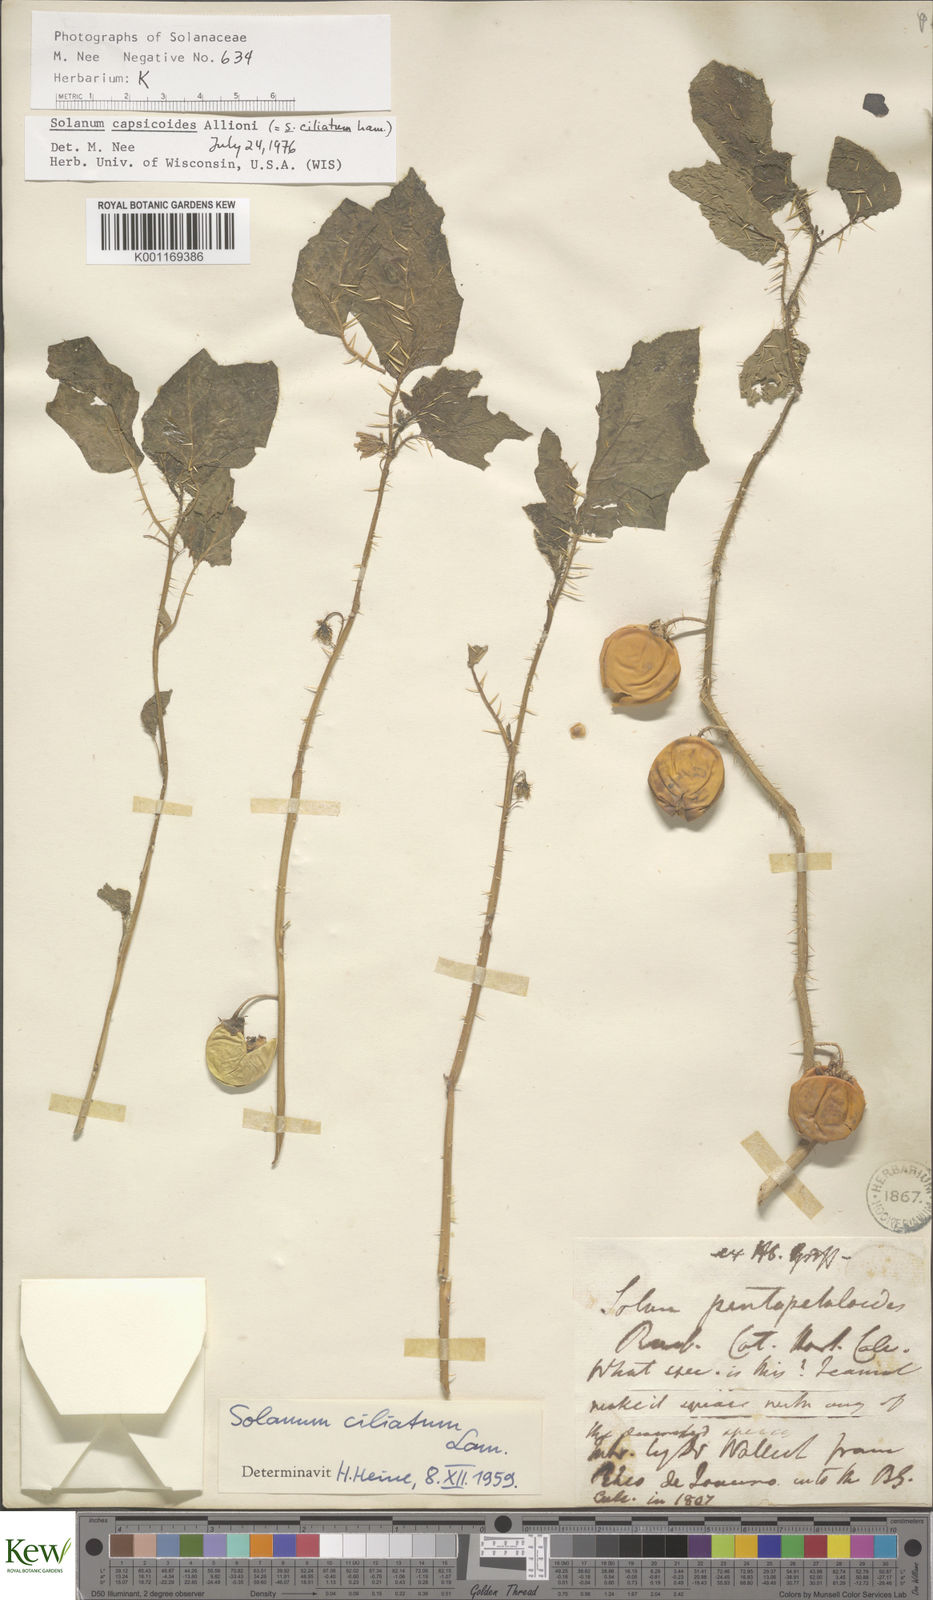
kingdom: Plantae
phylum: Tracheophyta
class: Magnoliopsida
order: Solanales
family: Solanaceae
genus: Solanum
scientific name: Solanum capsicoides
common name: Cockroach berry
